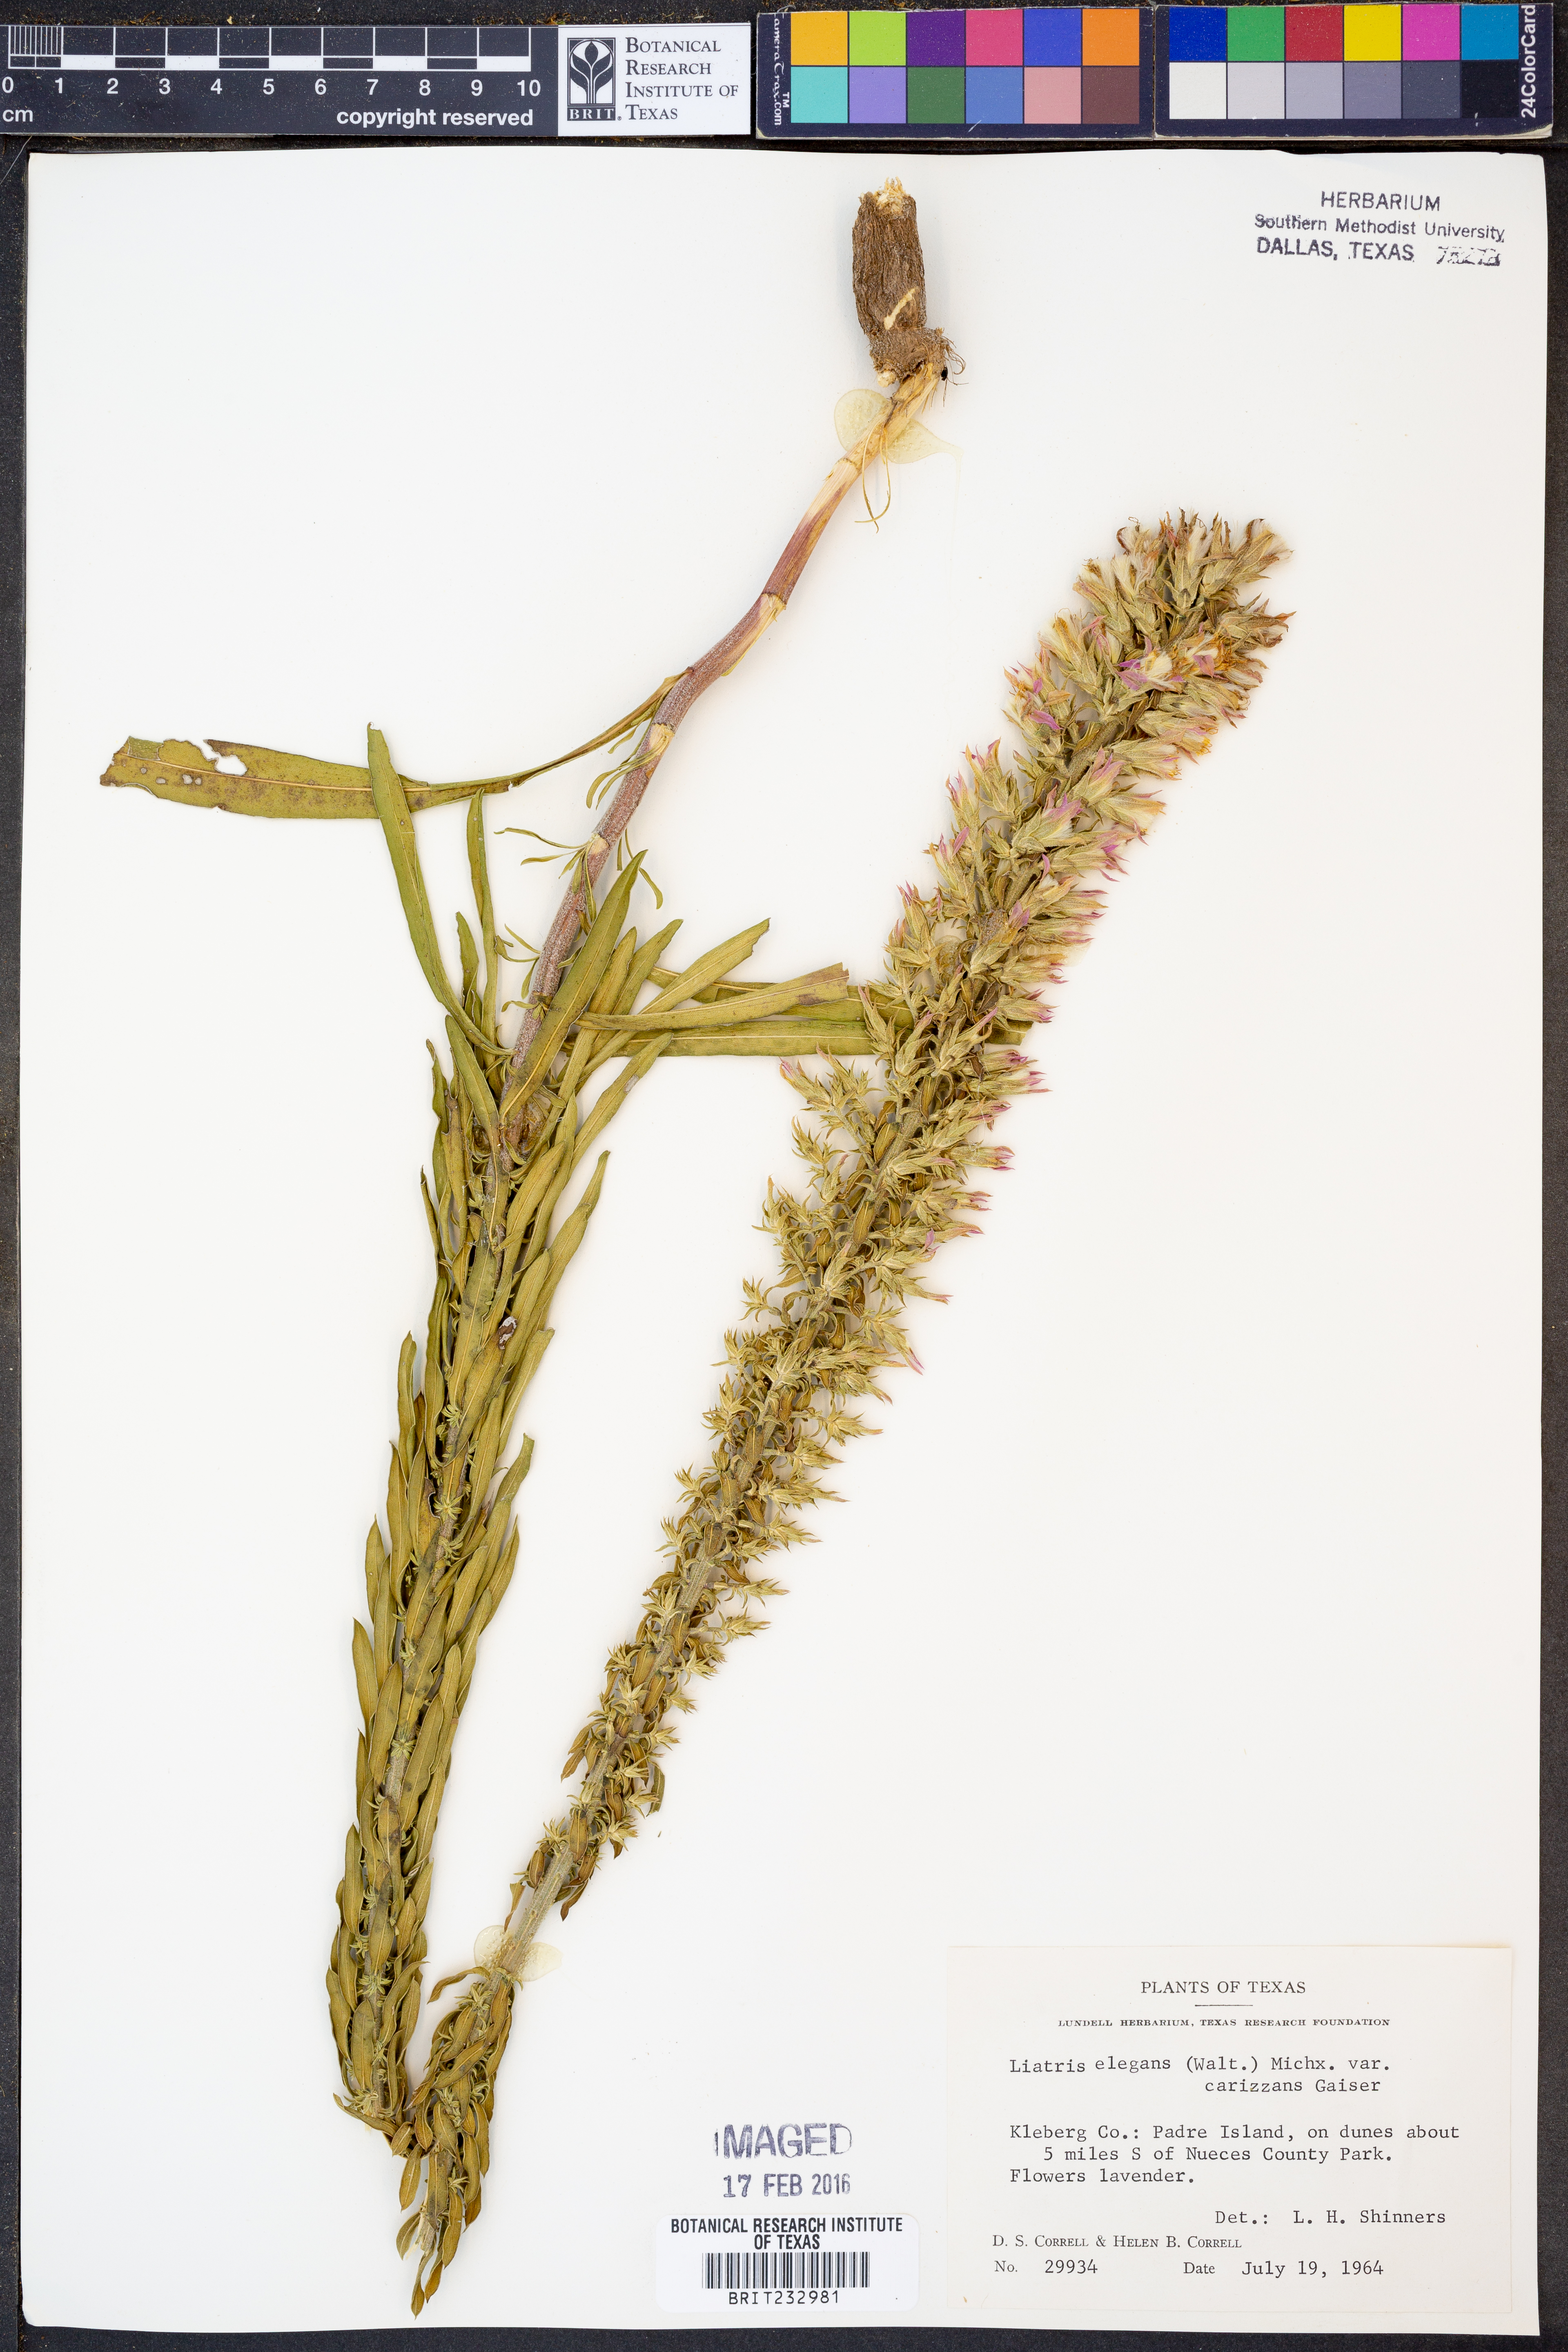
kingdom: Plantae
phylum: Tracheophyta
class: Magnoliopsida
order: Asterales
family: Asteraceae
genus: Liatris
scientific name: Liatris carizzana
